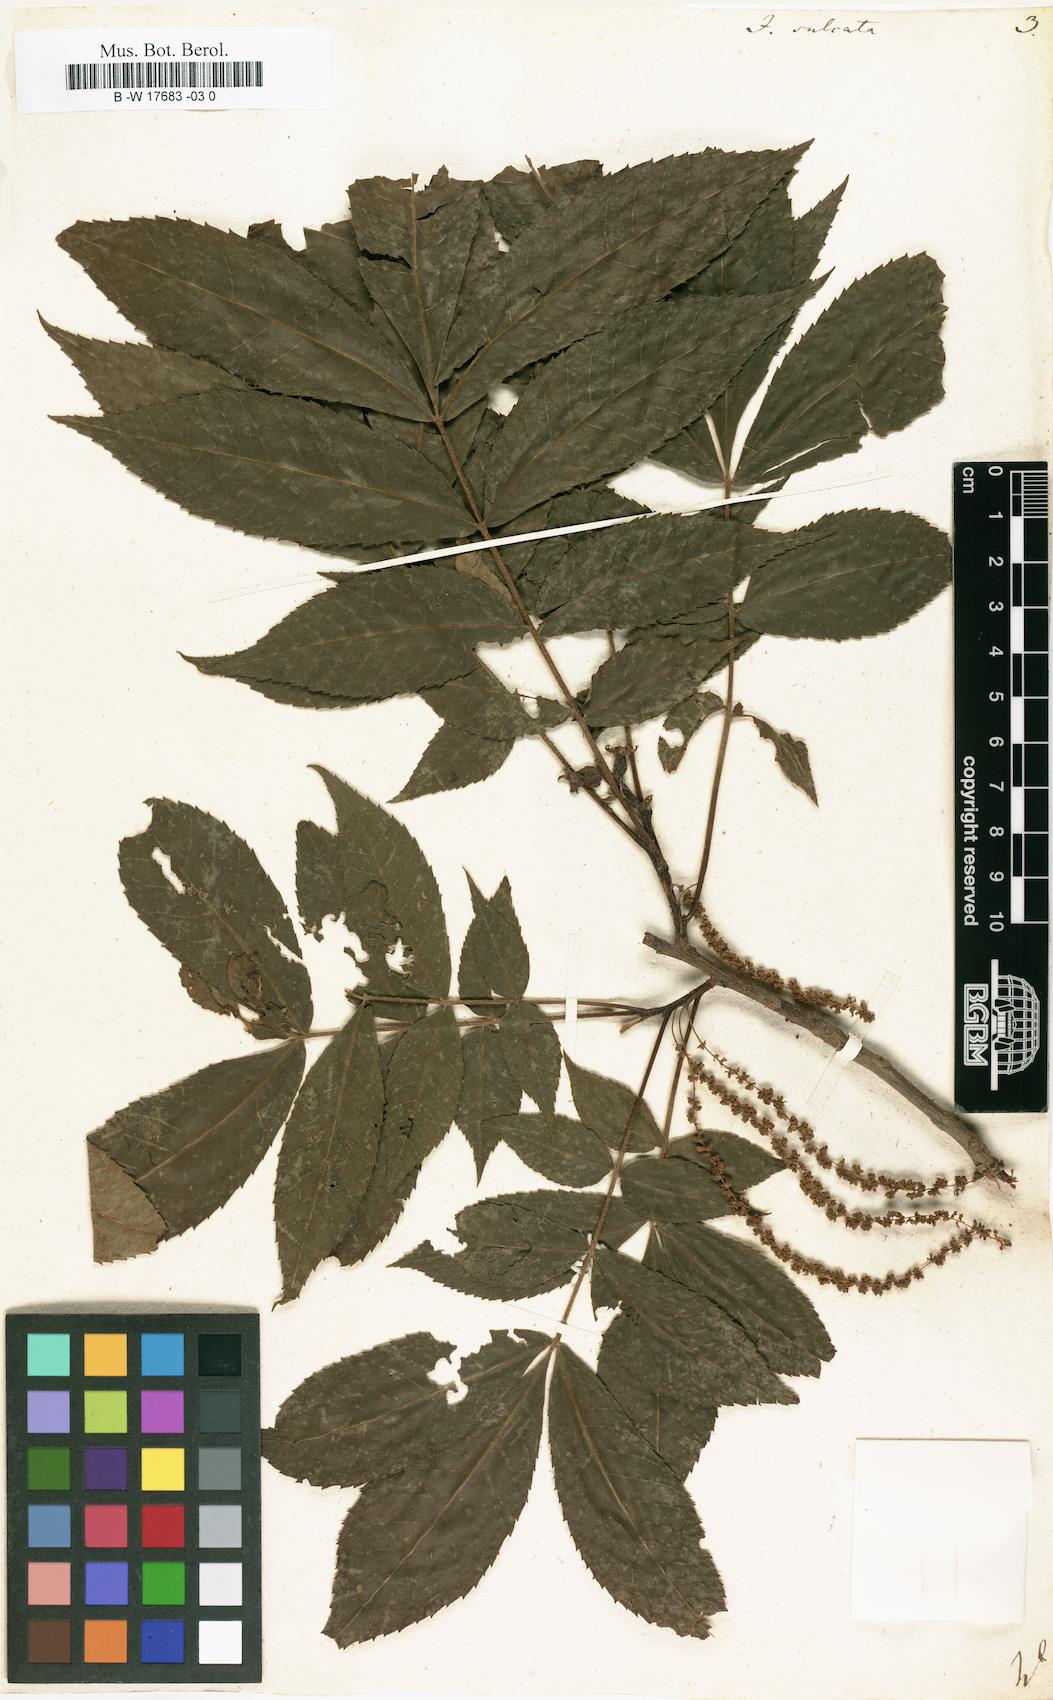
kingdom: Plantae
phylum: Tracheophyta
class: Magnoliopsida
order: Fagales
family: Juglandaceae
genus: Carya
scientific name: Carya laciniosa
